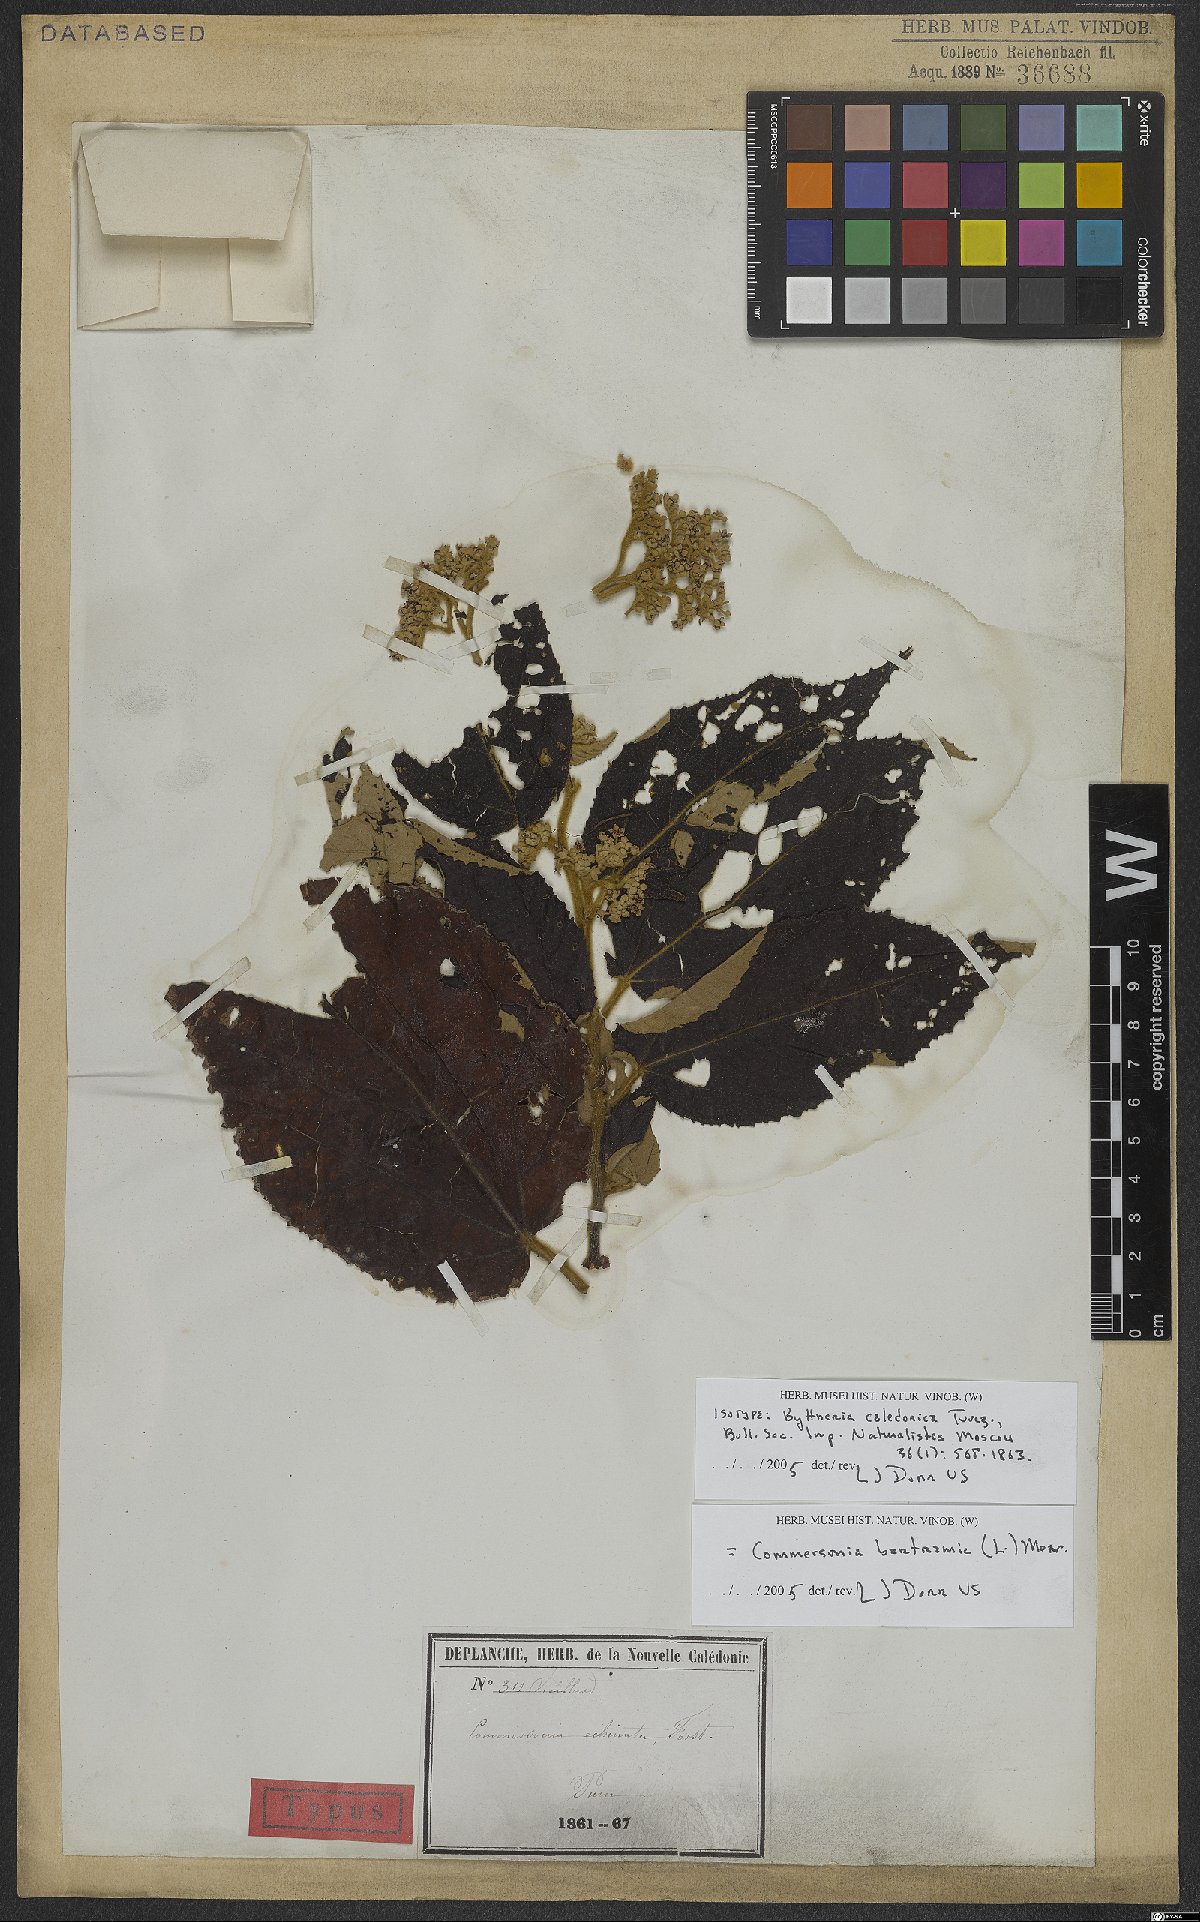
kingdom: Plantae
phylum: Tracheophyta
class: Magnoliopsida
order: Malvales
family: Malvaceae
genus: Commersonia
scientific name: Commersonia bartramia
